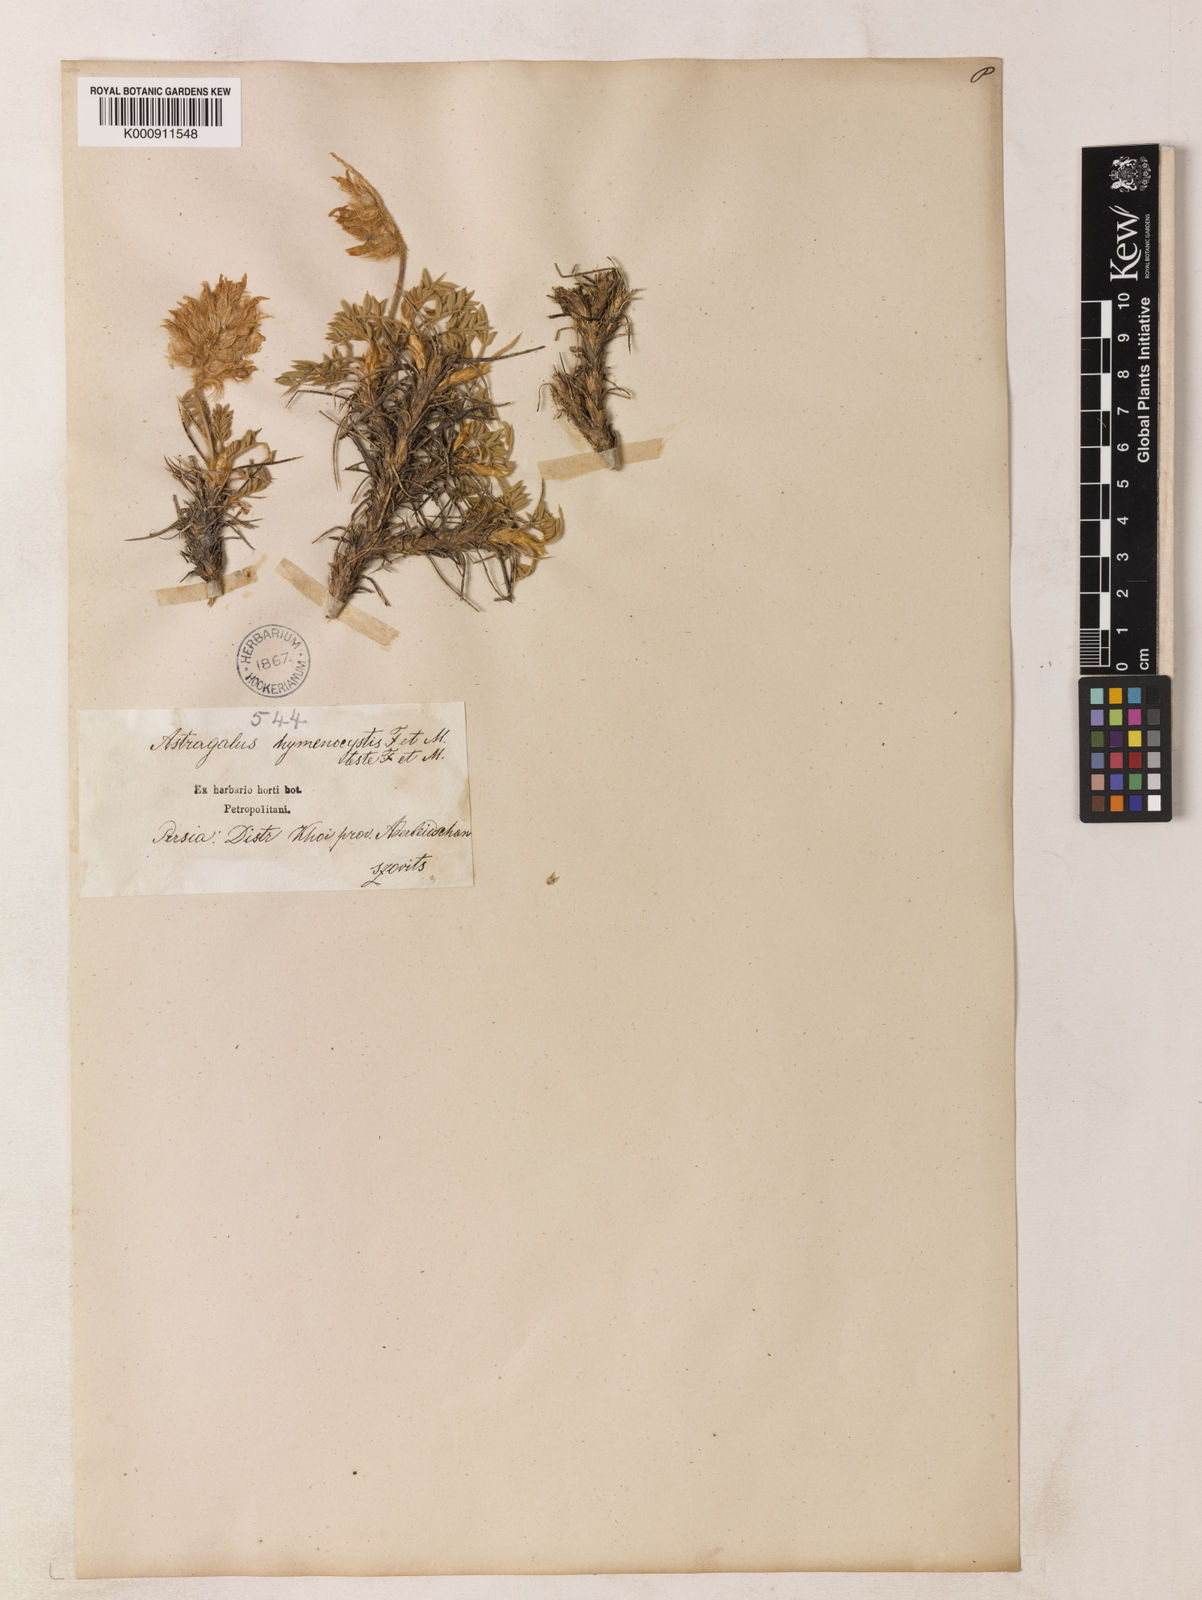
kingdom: Plantae
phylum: Tracheophyta
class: Magnoliopsida
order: Fabales
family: Fabaceae
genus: Astragalus
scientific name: Astragalus hymenocystis
